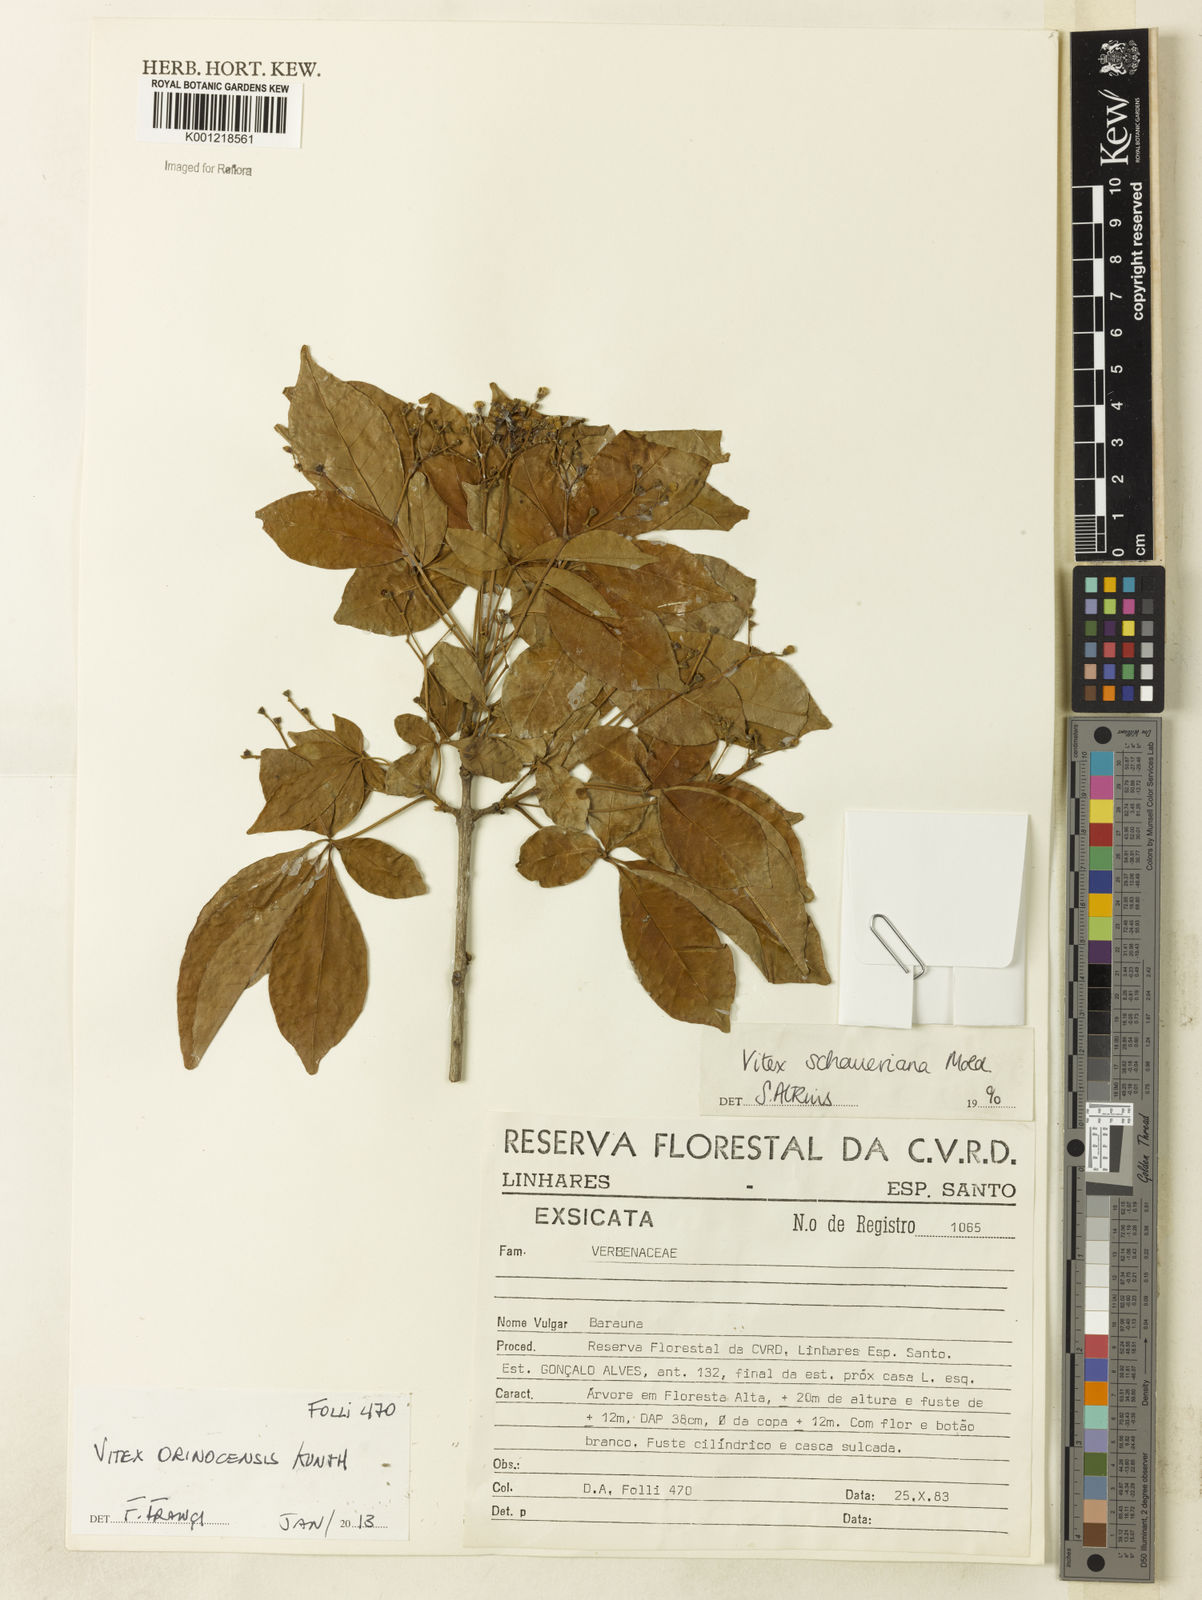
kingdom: Plantae
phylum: Tracheophyta
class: Magnoliopsida
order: Lamiales
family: Lamiaceae
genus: Vitex
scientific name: Vitex orinocensis
